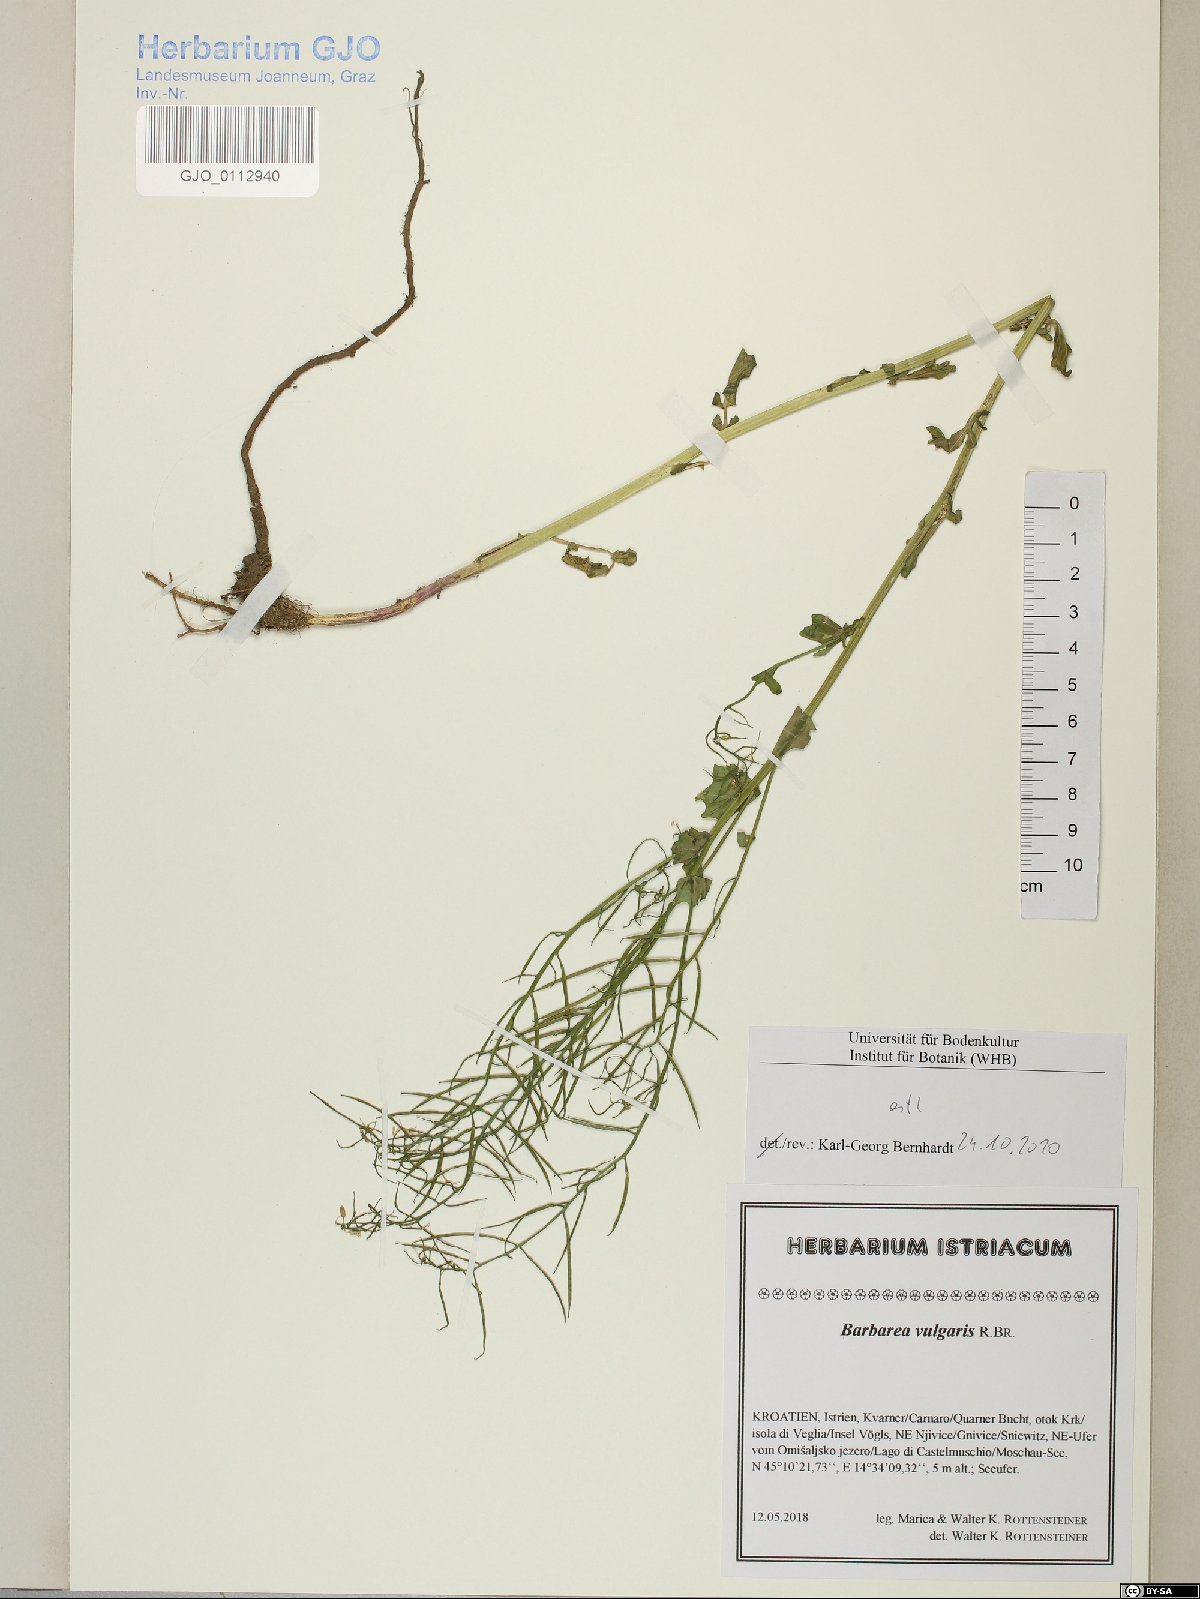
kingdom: Plantae
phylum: Tracheophyta
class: Magnoliopsida
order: Brassicales
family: Brassicaceae
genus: Barbarea
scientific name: Barbarea vulgaris
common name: Cressy-greens
